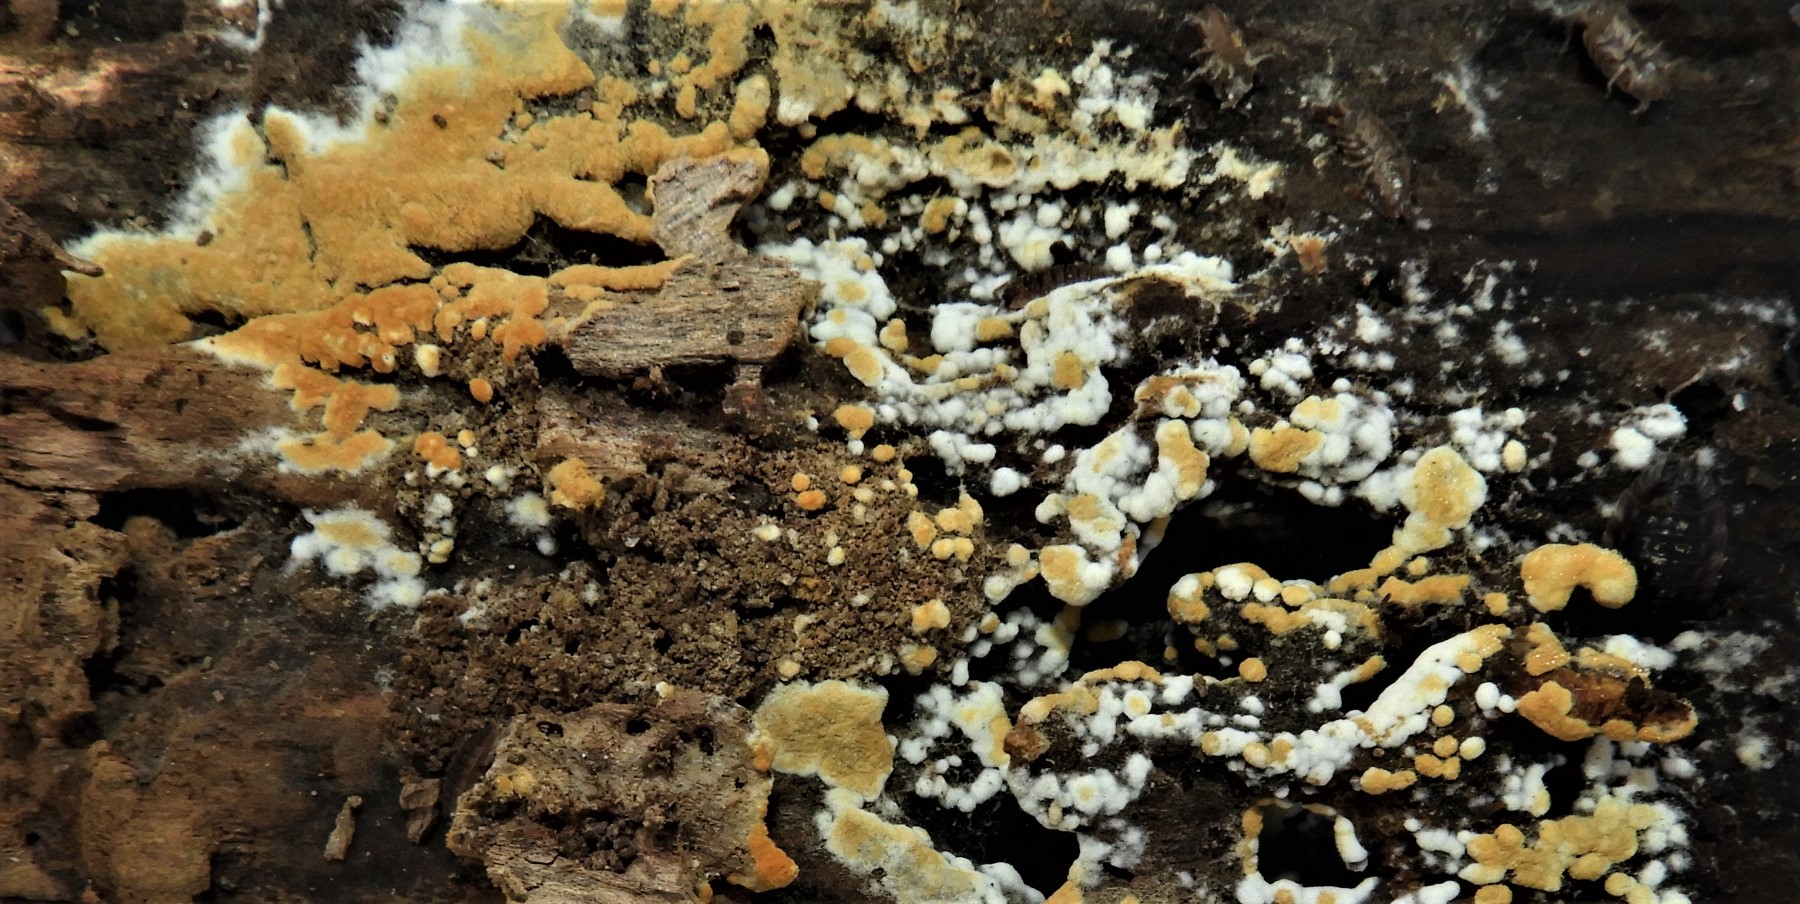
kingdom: Fungi
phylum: Basidiomycota
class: Agaricomycetes
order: Cantharellales
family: Botryobasidiaceae
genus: Botryobasidium
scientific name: Botryobasidium aureum
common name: gylden spindhinde
